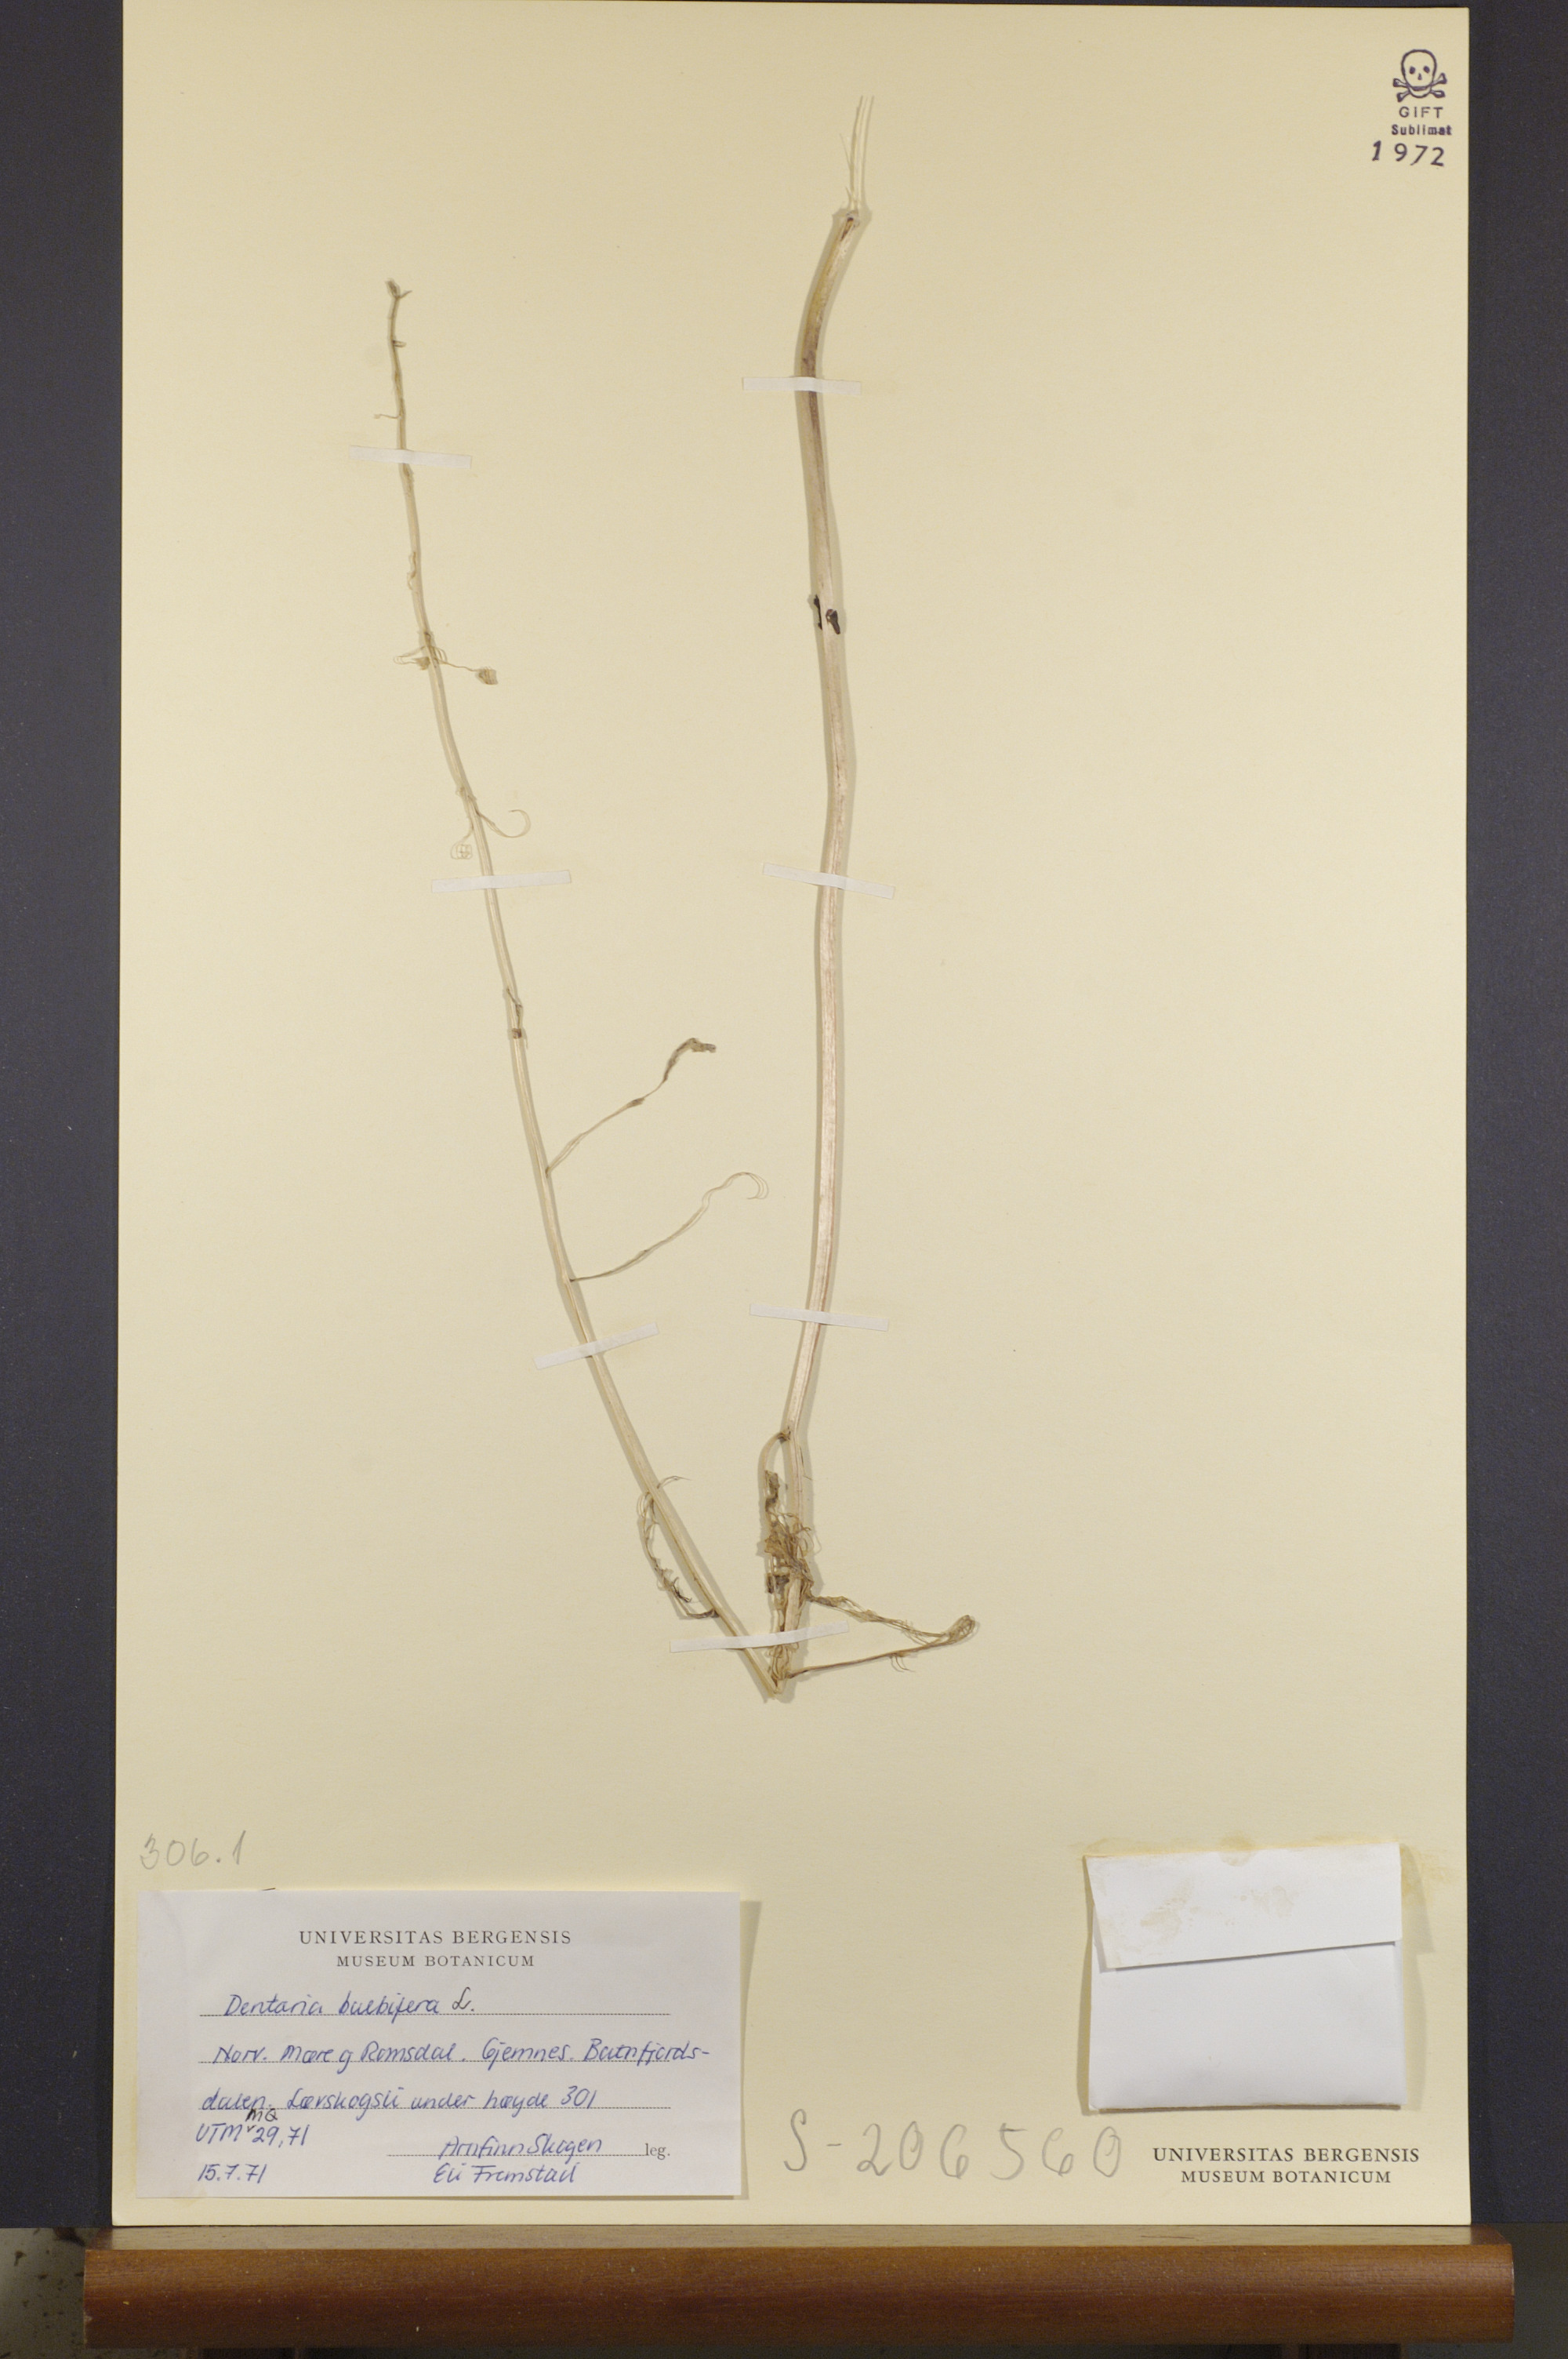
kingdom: Plantae
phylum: Tracheophyta
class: Magnoliopsida
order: Brassicales
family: Brassicaceae
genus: Cardamine
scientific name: Cardamine bulbifera
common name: Coralroot bittercress
